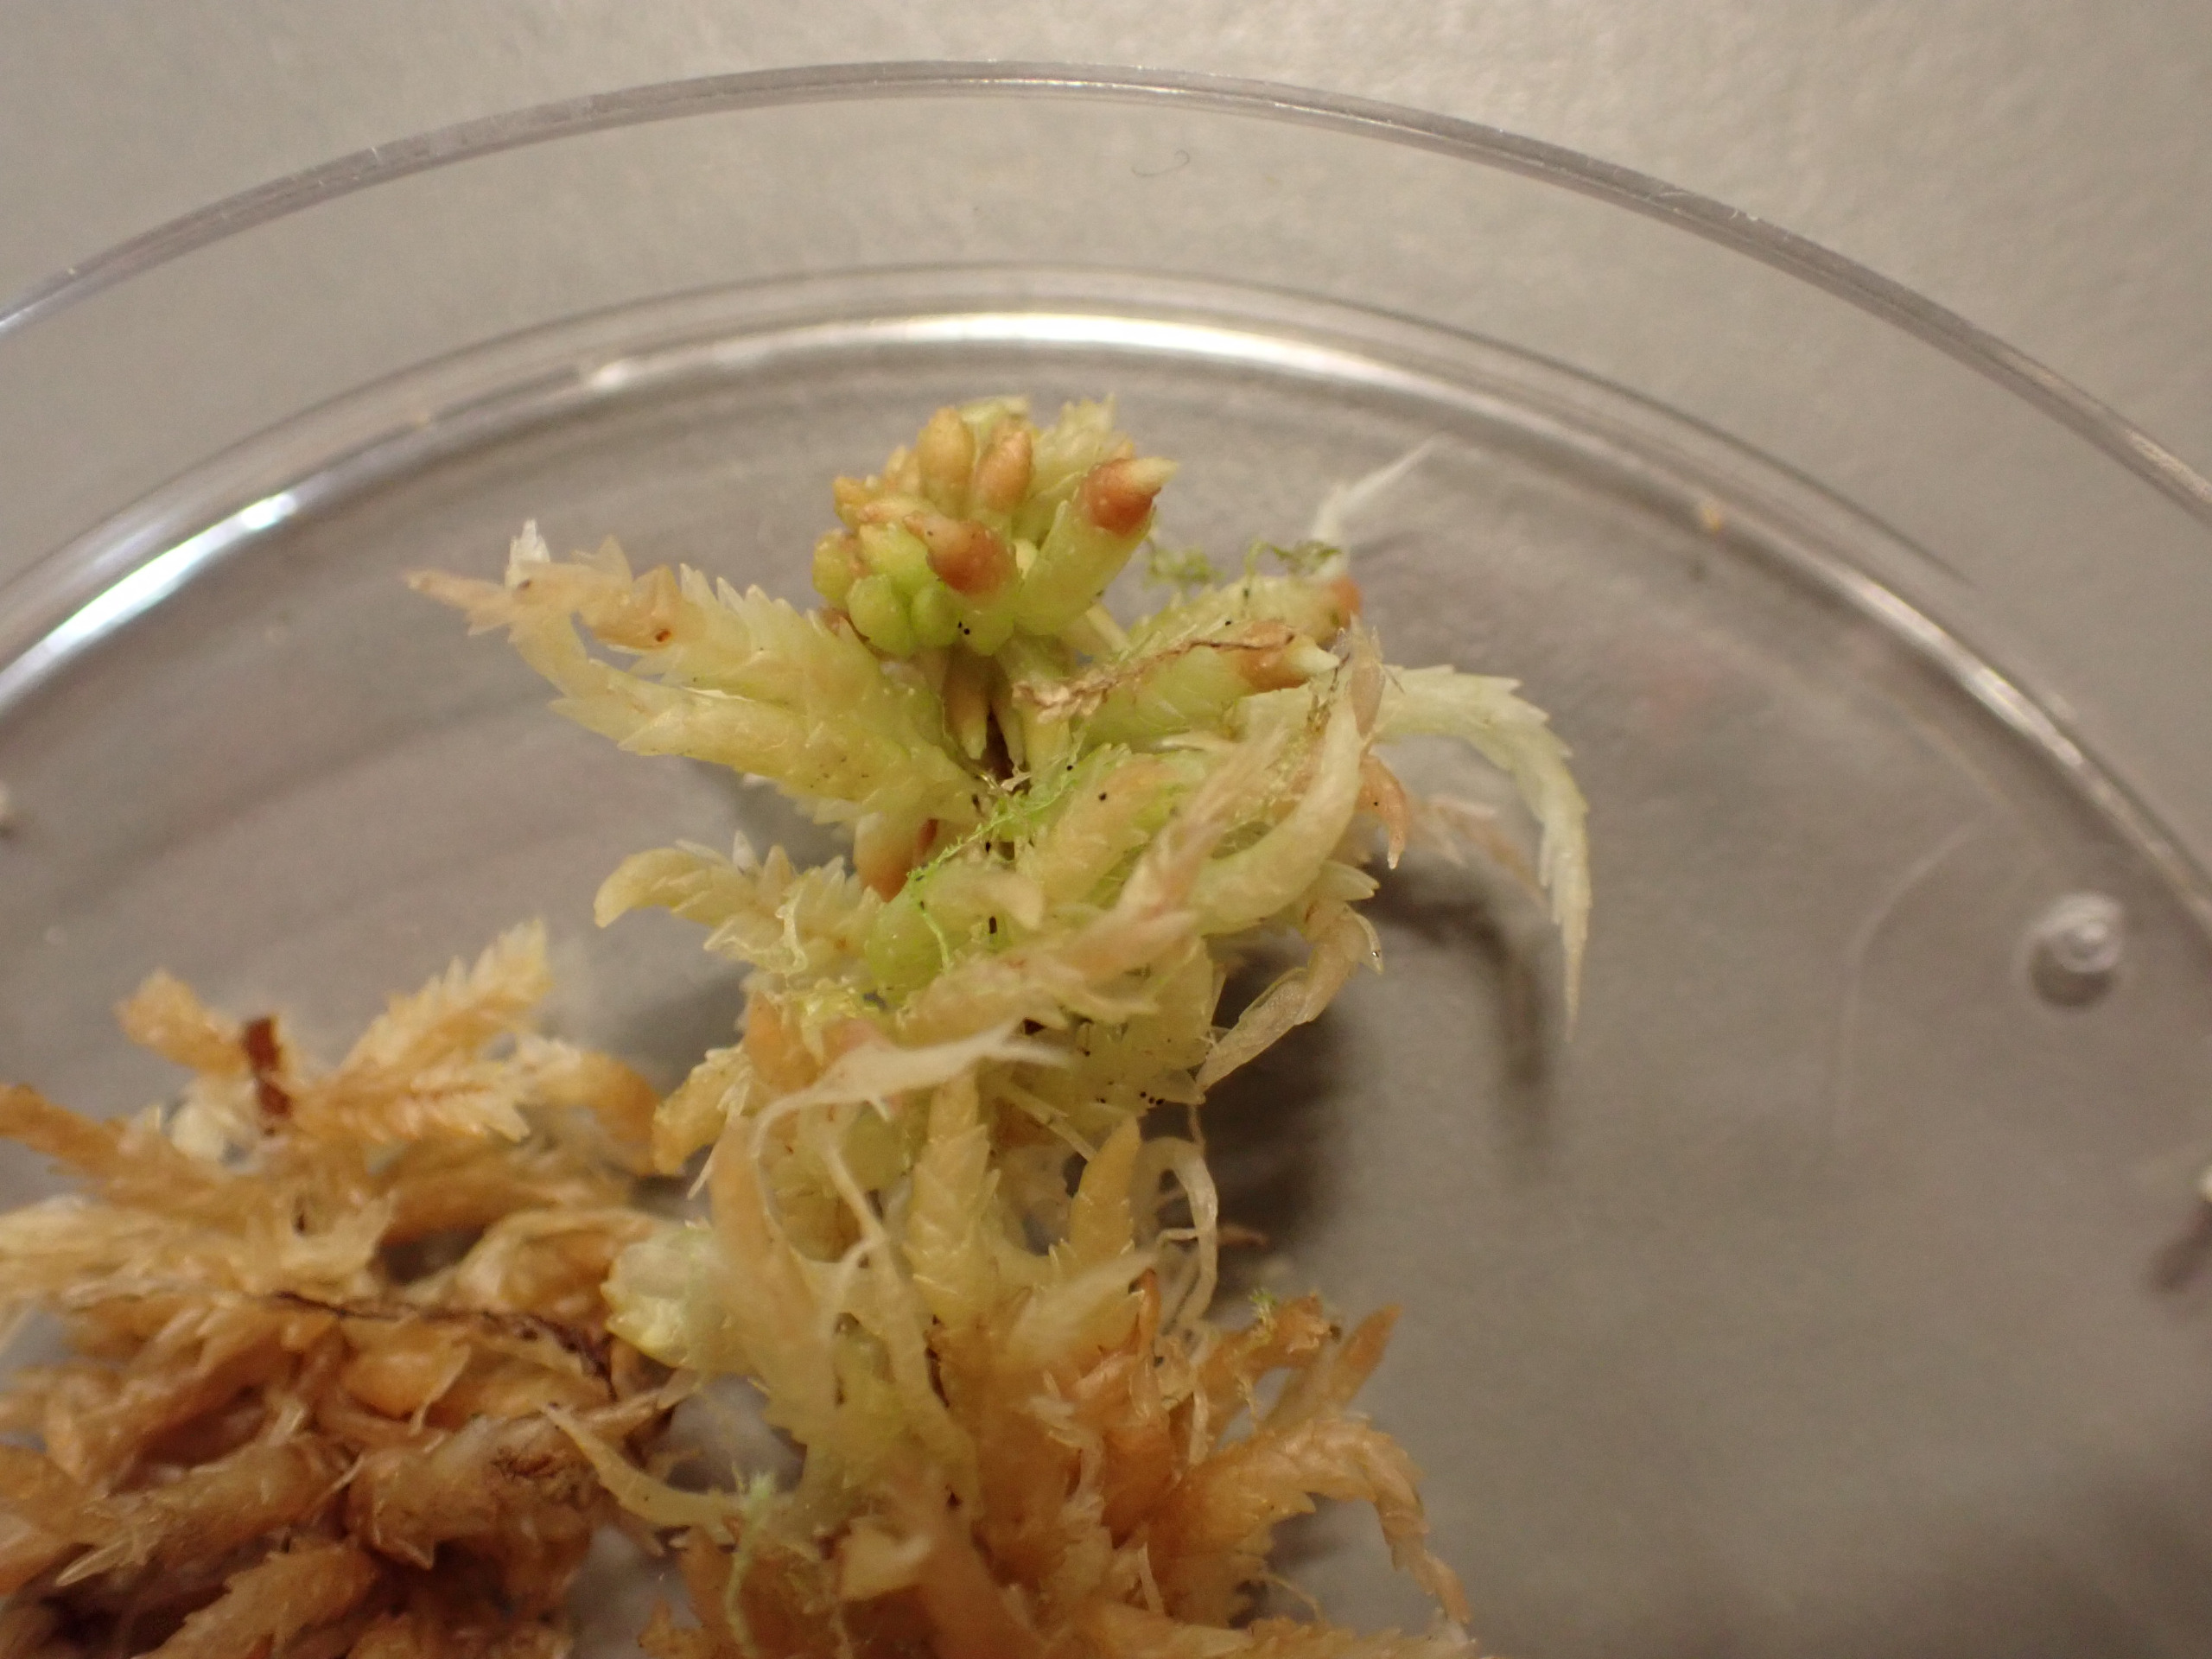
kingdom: Plantae
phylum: Bryophyta
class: Sphagnopsida
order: Sphagnales
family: Sphagnaceae
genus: Sphagnum
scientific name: Sphagnum palustre
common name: Almindelig tørvemos
